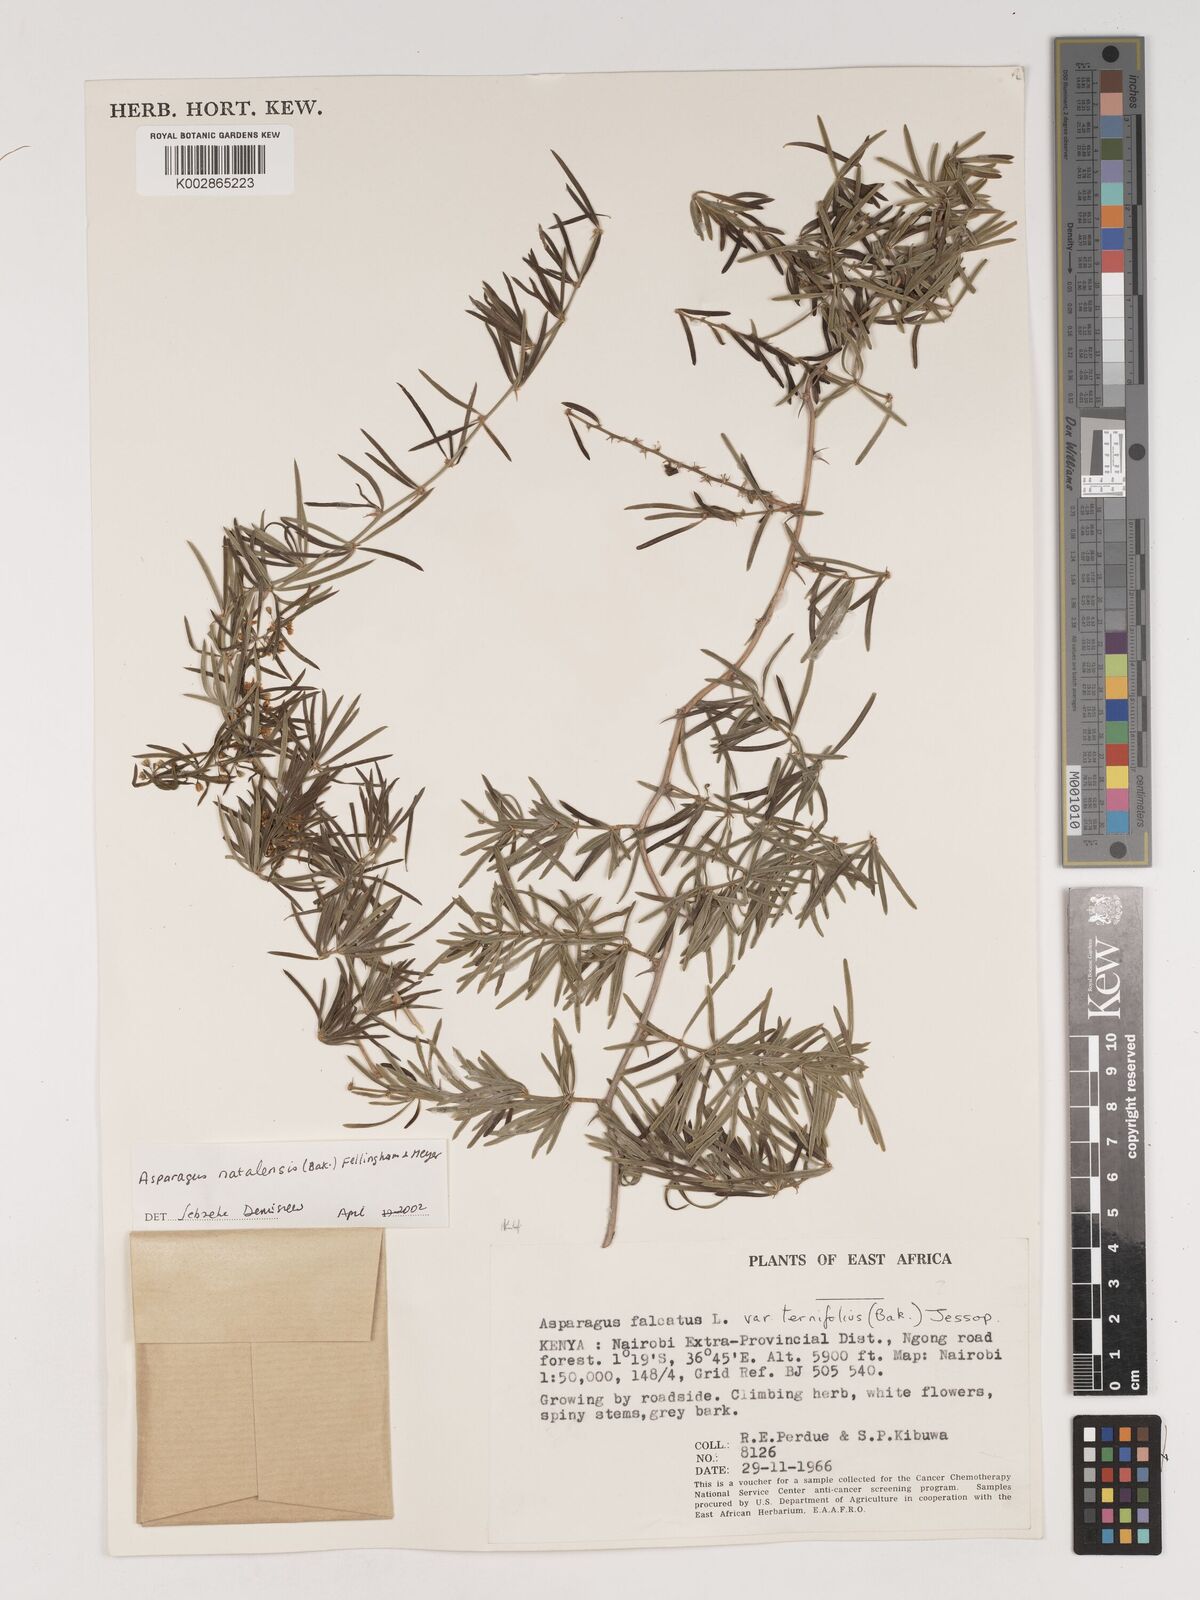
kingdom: Plantae
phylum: Tracheophyta
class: Liliopsida
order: Asparagales
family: Asparagaceae
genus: Asparagus
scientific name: Asparagus natalensis
